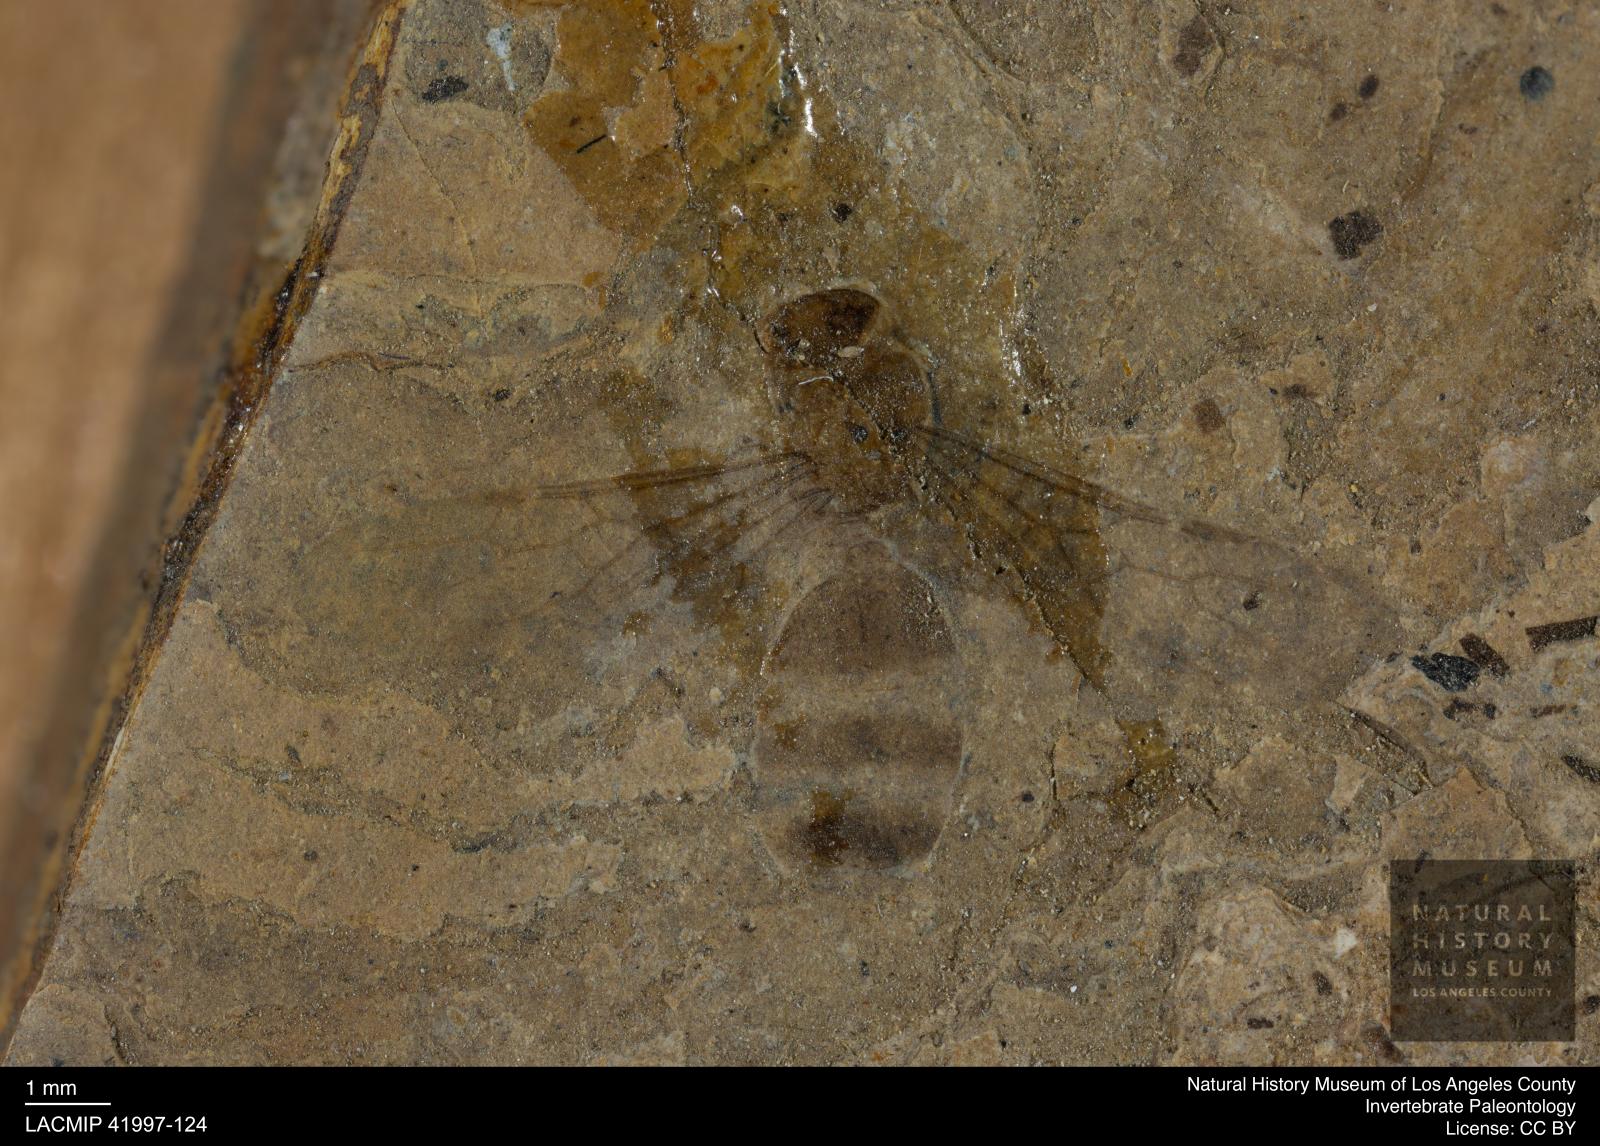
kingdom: Animalia
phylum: Arthropoda
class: Insecta
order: Hymenoptera
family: Formicidae
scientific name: Formicidae
